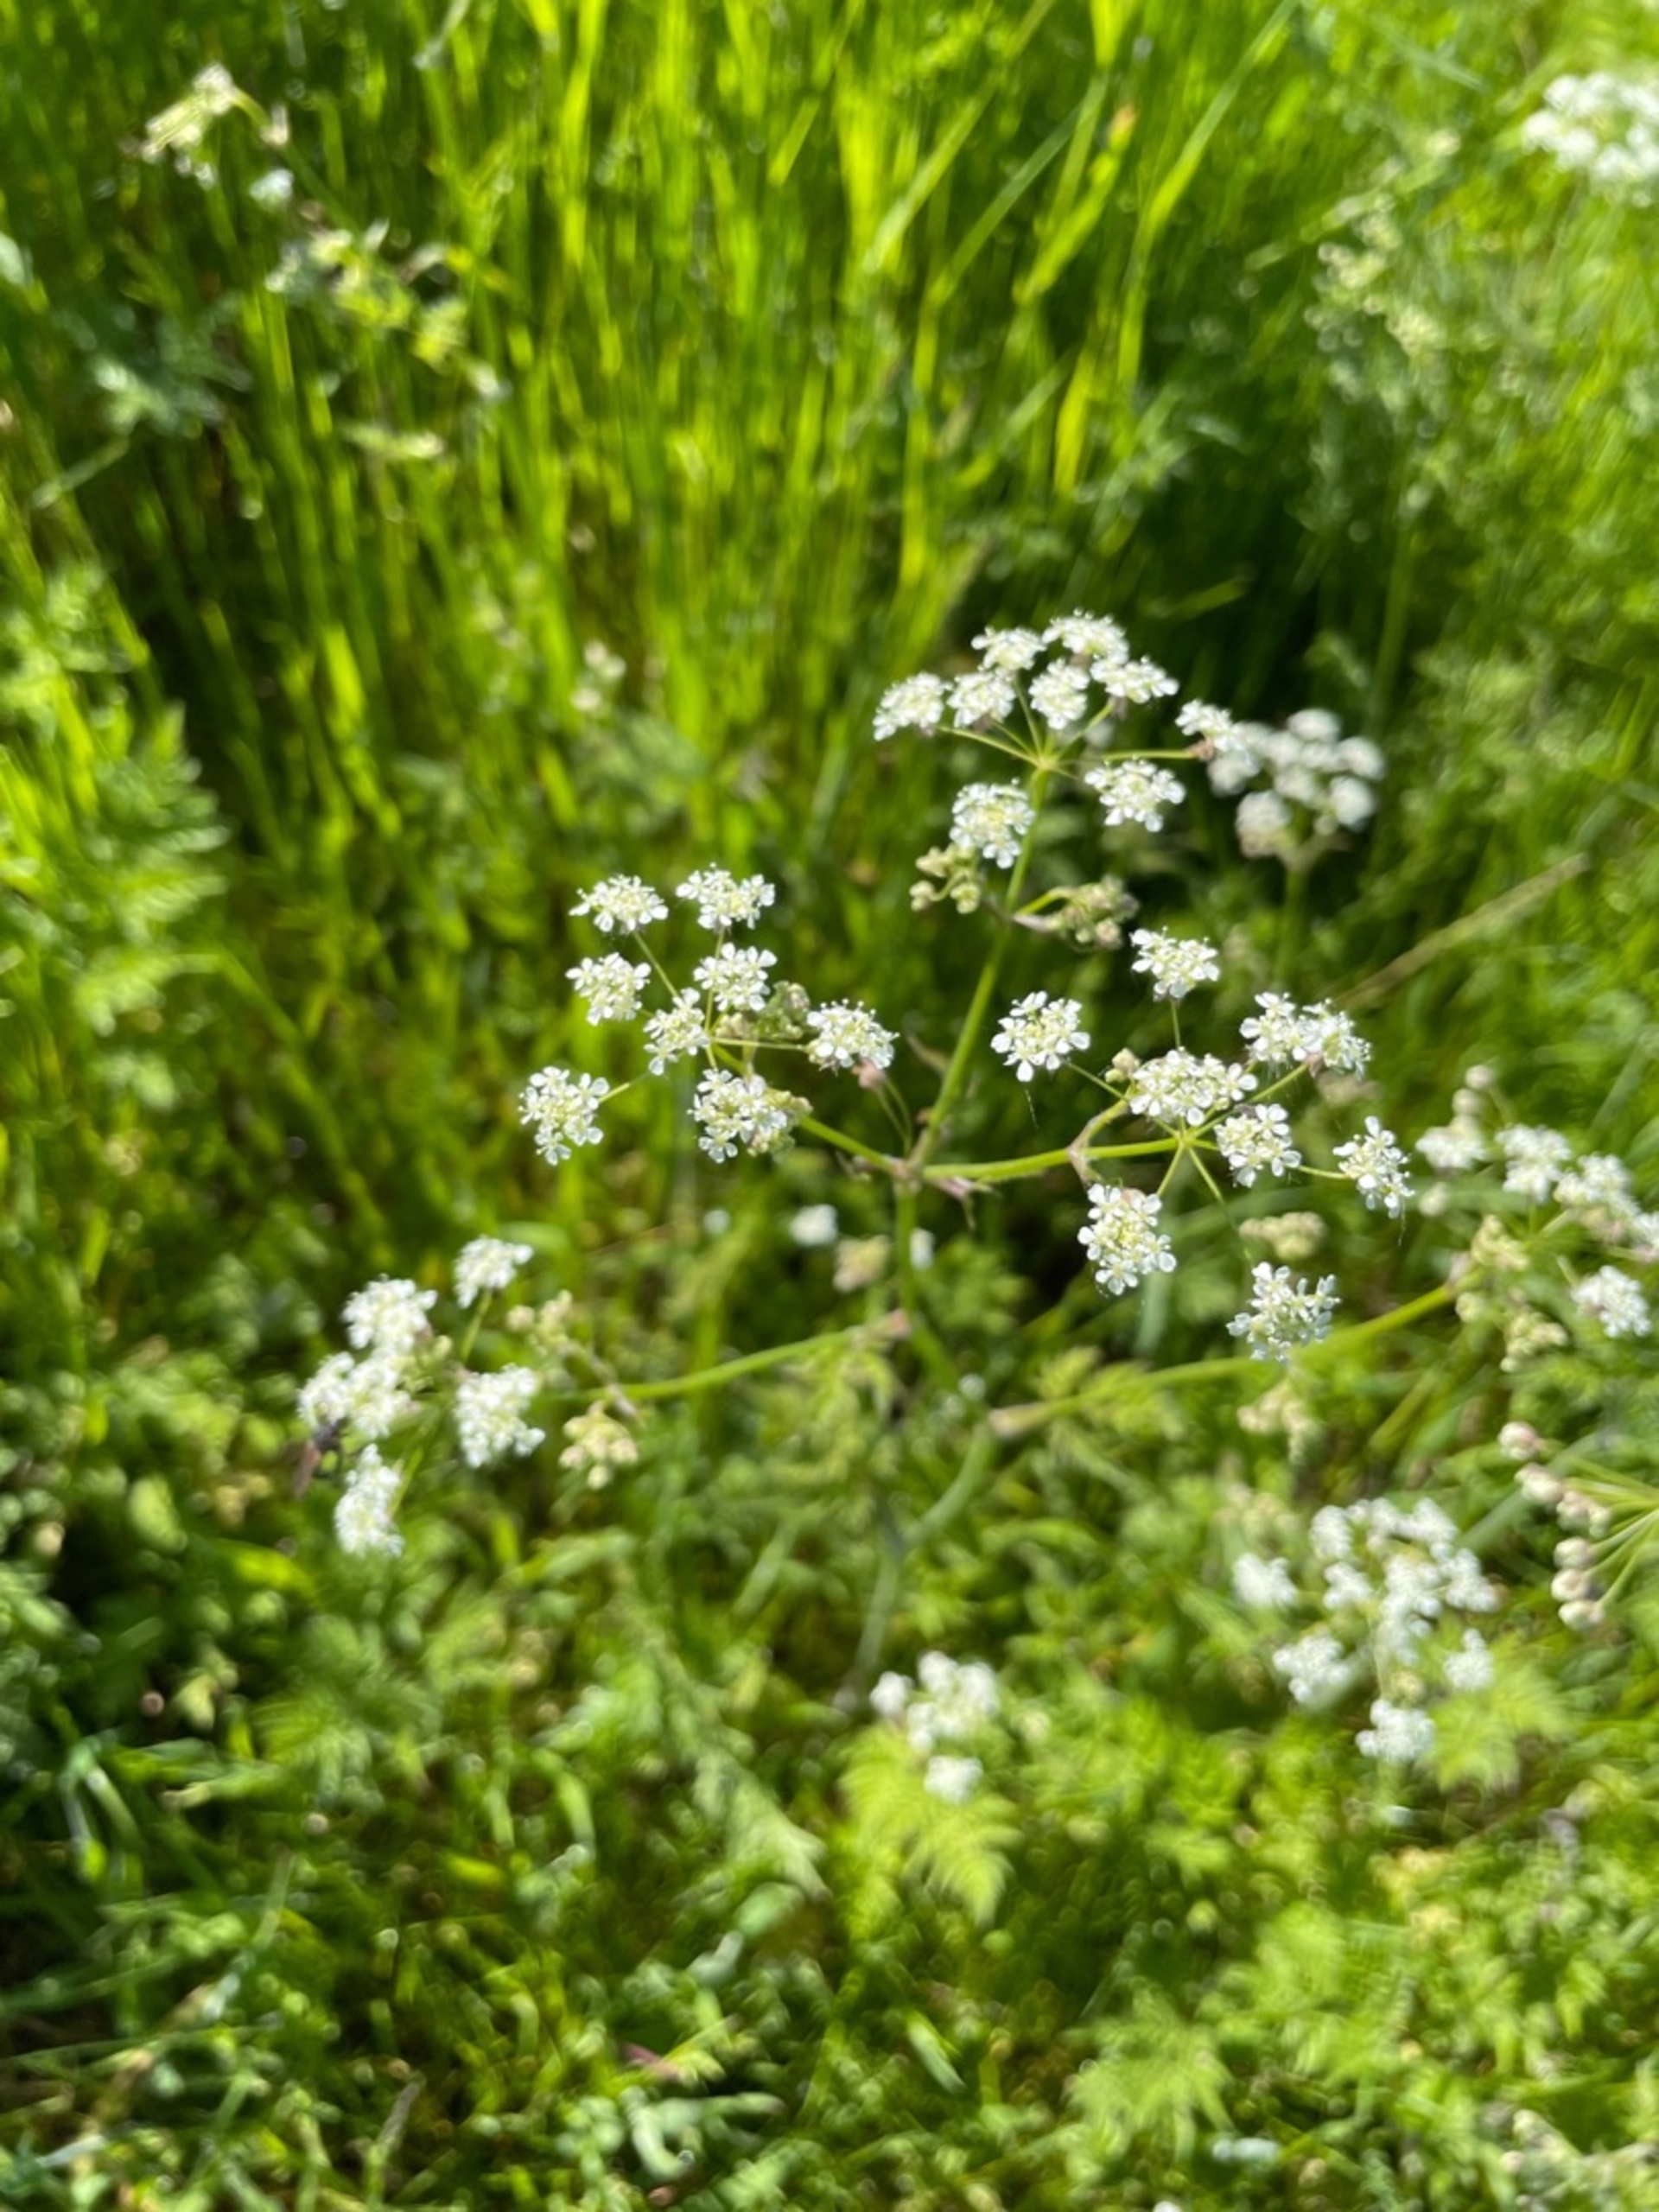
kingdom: Plantae
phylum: Tracheophyta
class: Magnoliopsida
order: Apiales
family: Apiaceae
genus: Anthriscus
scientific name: Anthriscus sylvestris
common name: Vild kørvel
